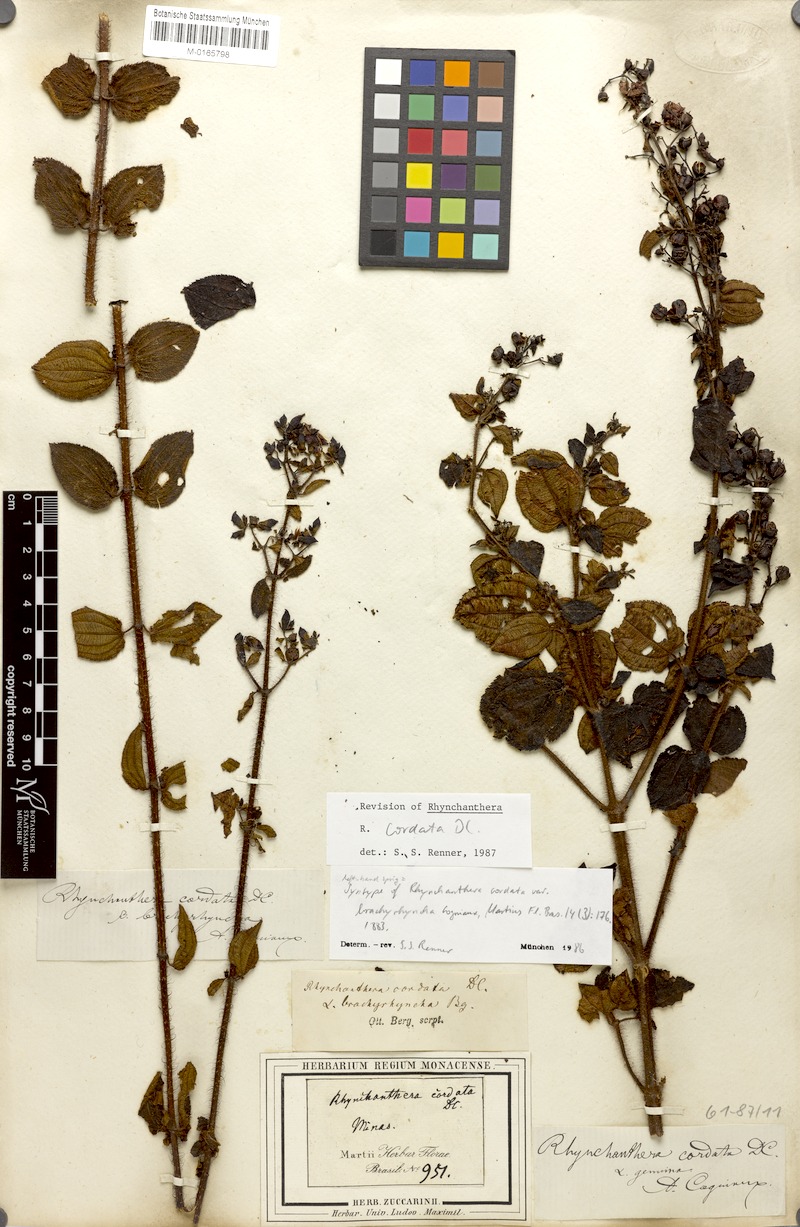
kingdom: Plantae
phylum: Tracheophyta
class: Magnoliopsida
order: Myrtales
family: Melastomataceae
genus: Rhynchanthera
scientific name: Rhynchanthera cordata
